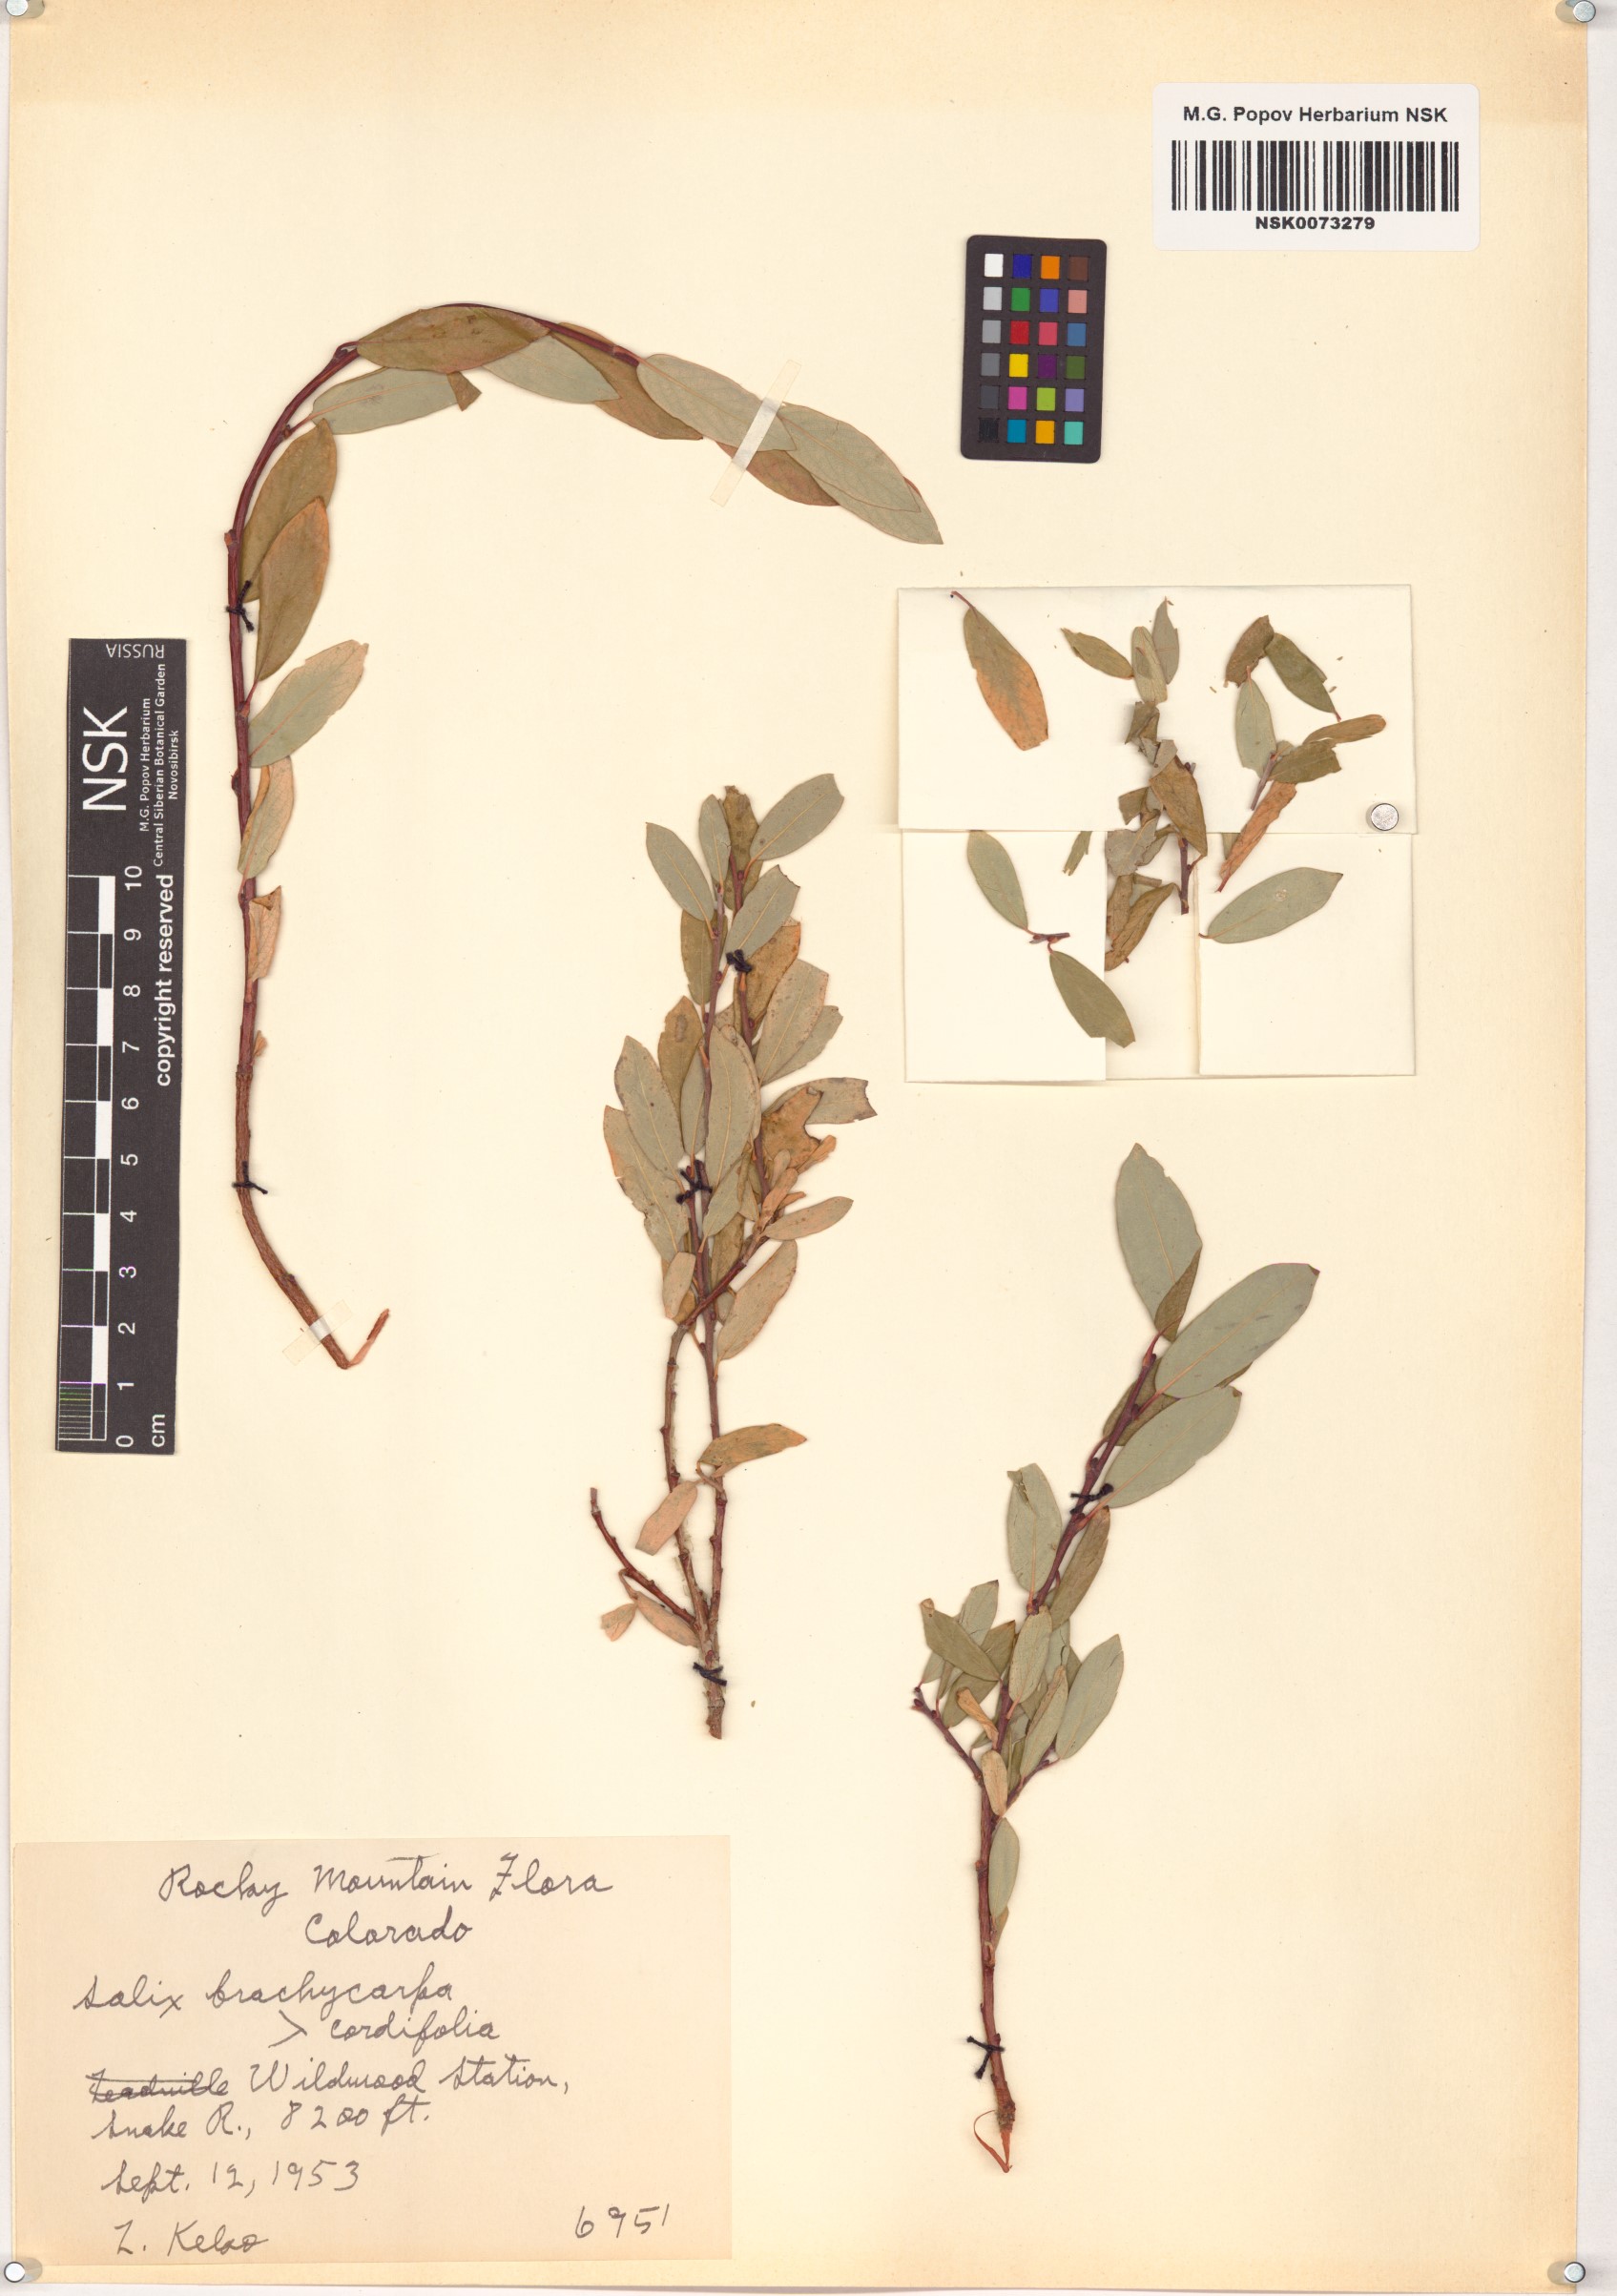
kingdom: Plantae
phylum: Tracheophyta
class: Magnoliopsida
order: Malpighiales
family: Salicaceae
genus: Salix
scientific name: Salix brachycarpa
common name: Barren-ground willow
